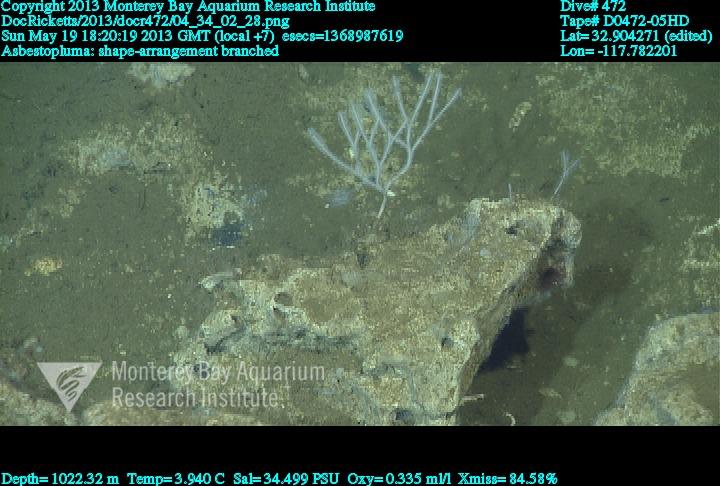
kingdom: Animalia
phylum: Porifera
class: Demospongiae
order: Poecilosclerida
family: Cladorhizidae
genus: Asbestopluma
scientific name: Asbestopluma
